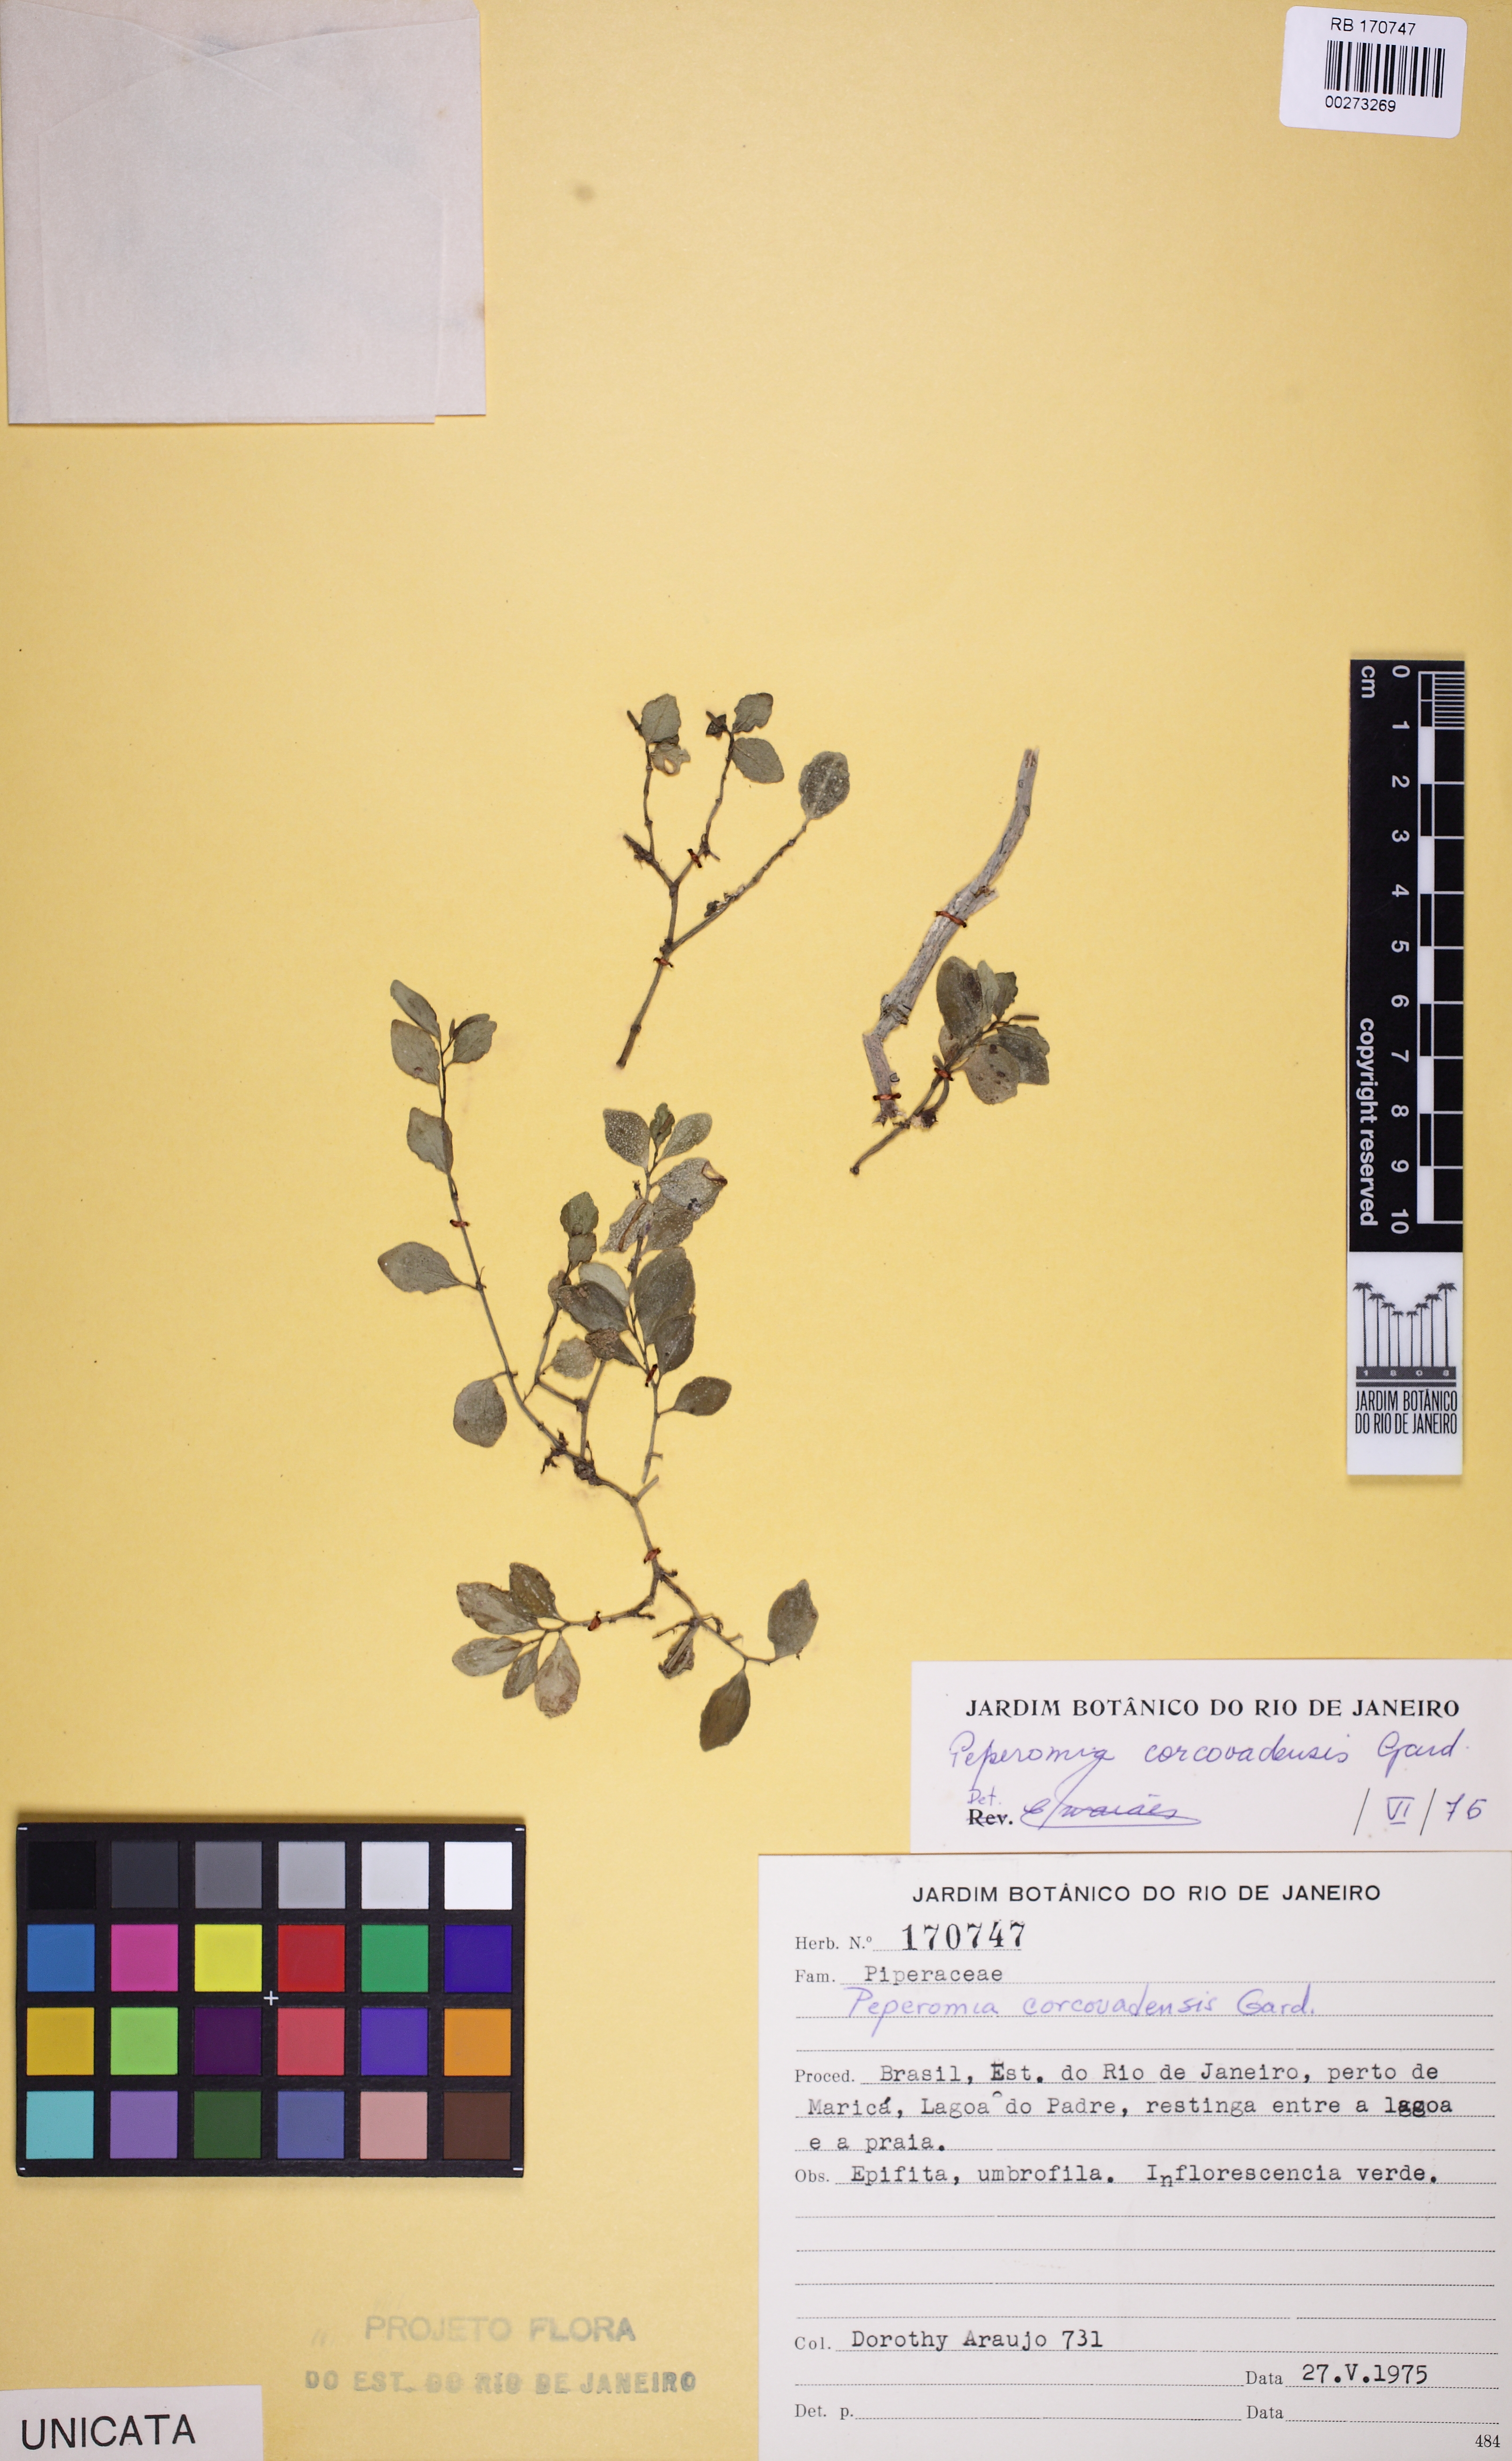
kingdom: Plantae
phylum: Tracheophyta
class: Magnoliopsida
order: Piperales
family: Piperaceae
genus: Peperomia
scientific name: Peperomia corcovadensis
